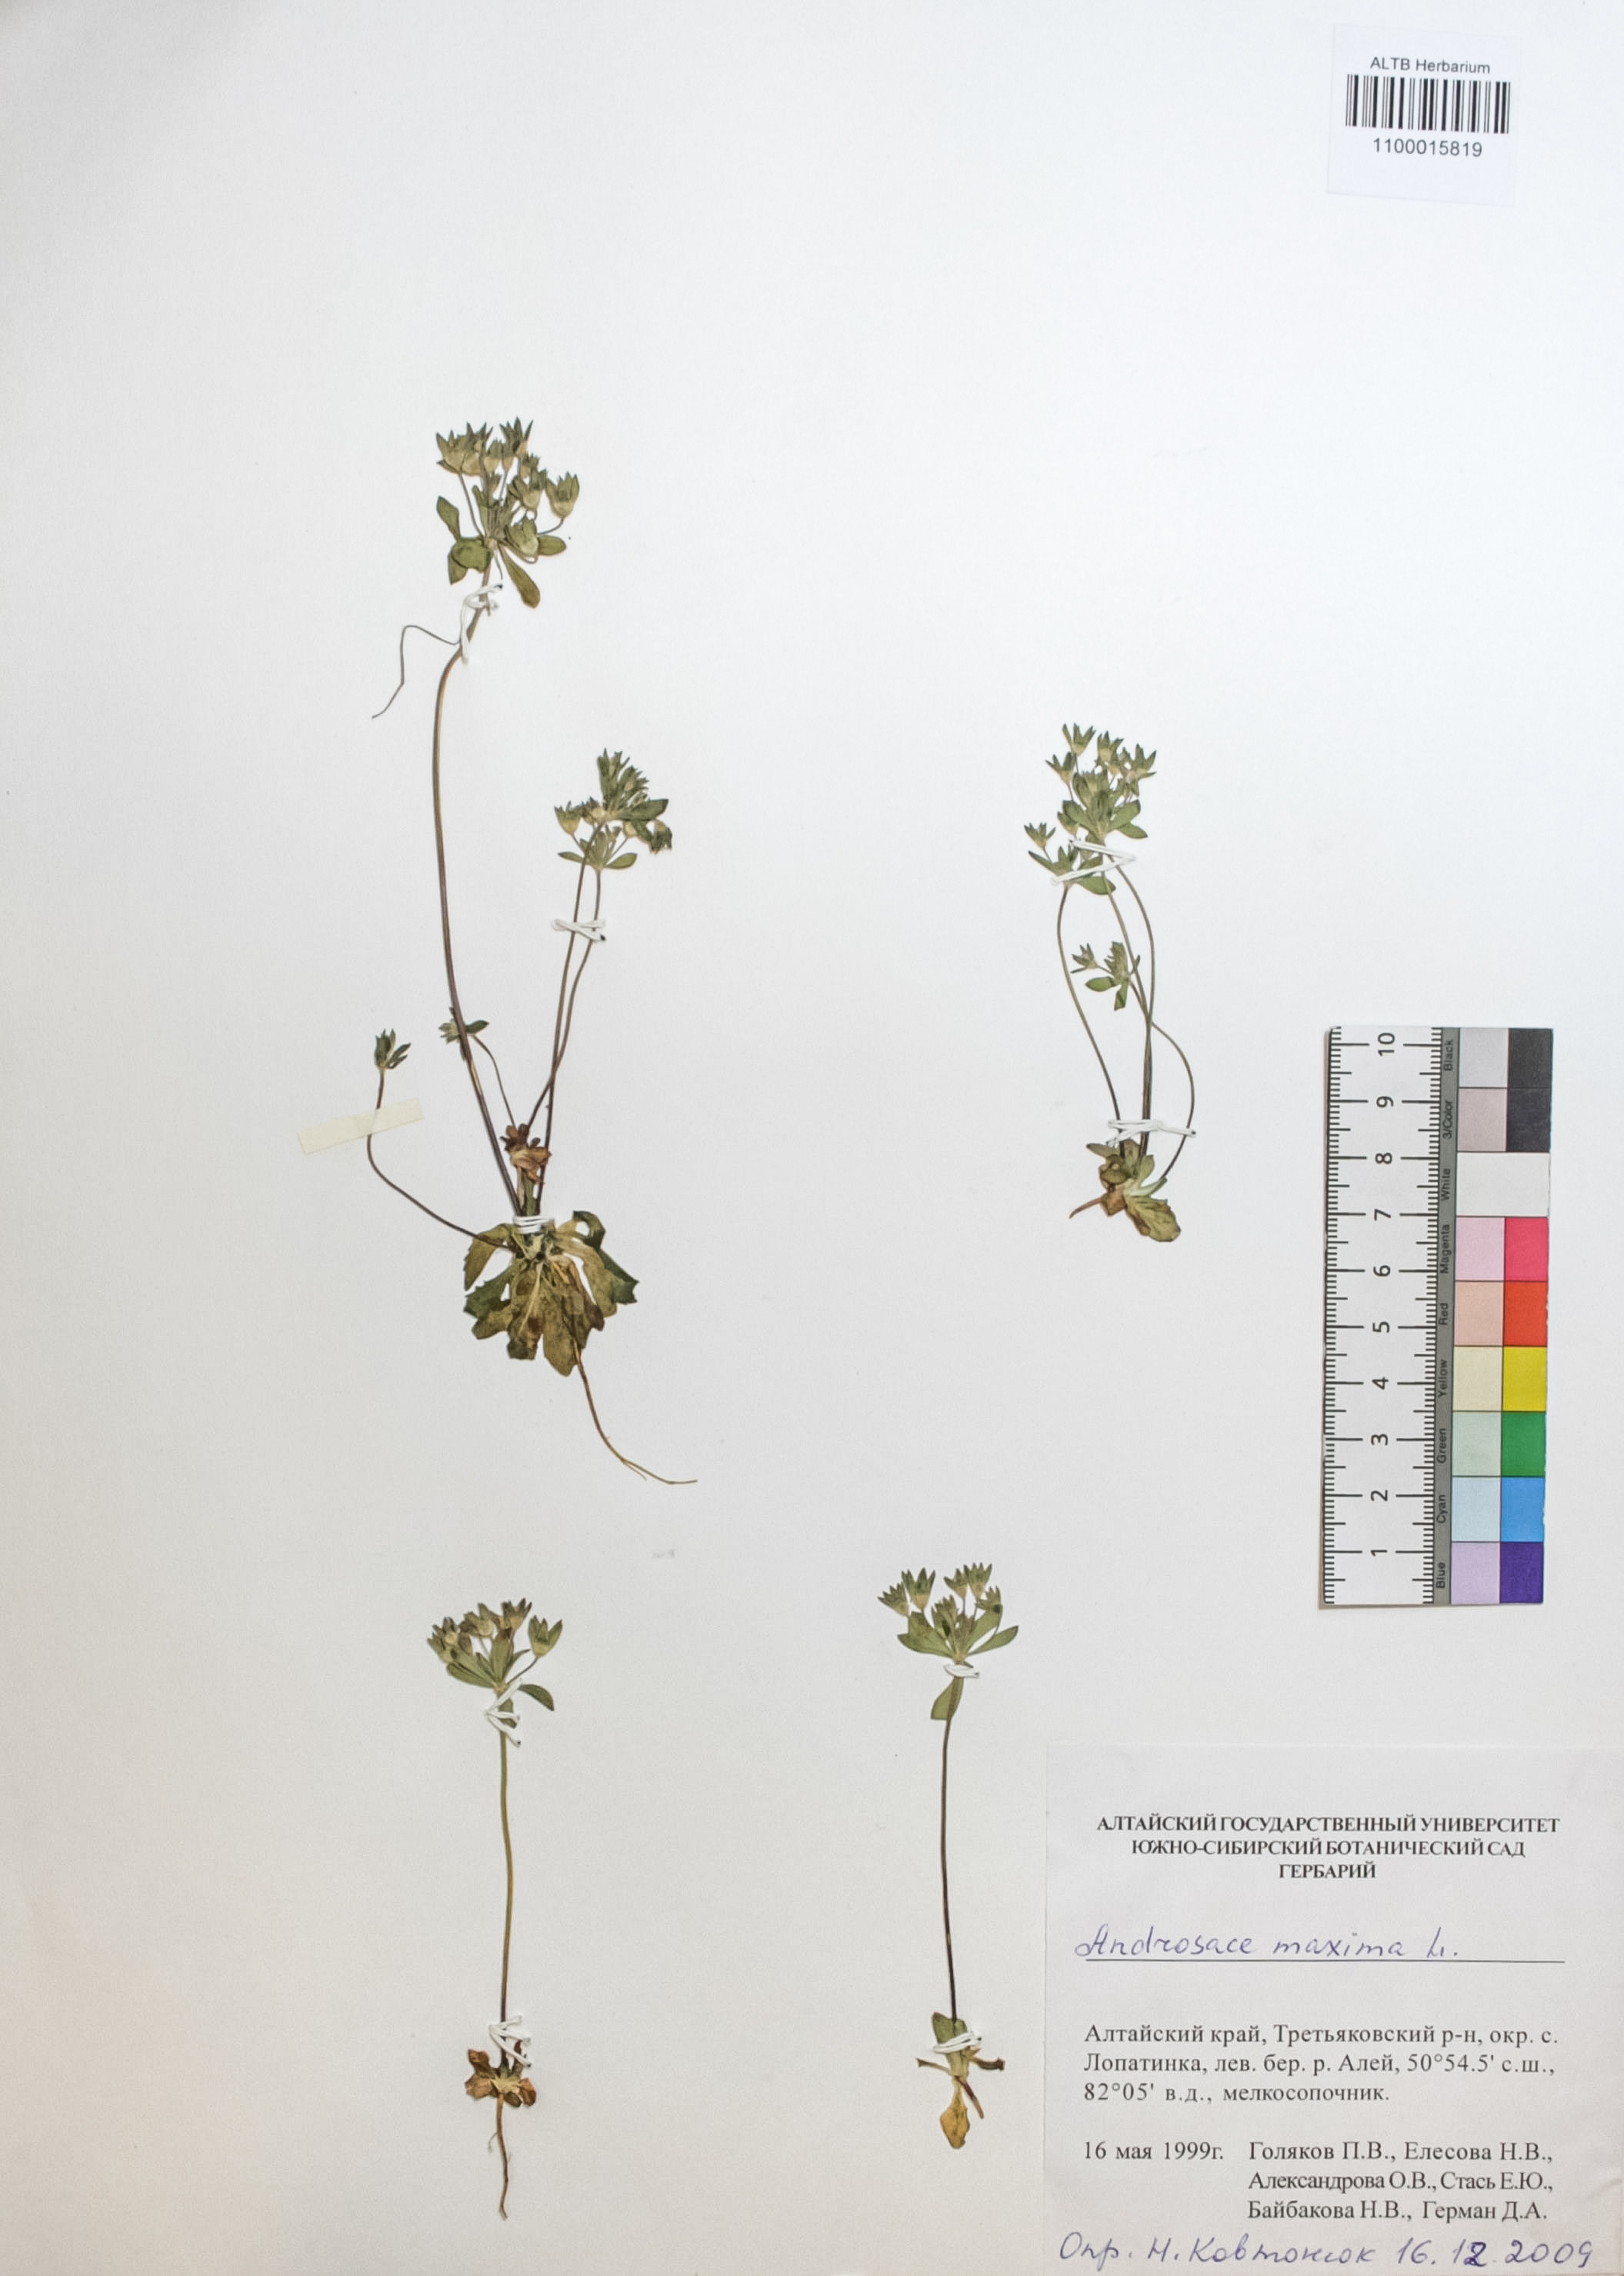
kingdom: Plantae
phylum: Tracheophyta
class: Magnoliopsida
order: Ericales
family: Primulaceae
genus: Androsace
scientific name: Androsace maxima
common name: Annual androsace
